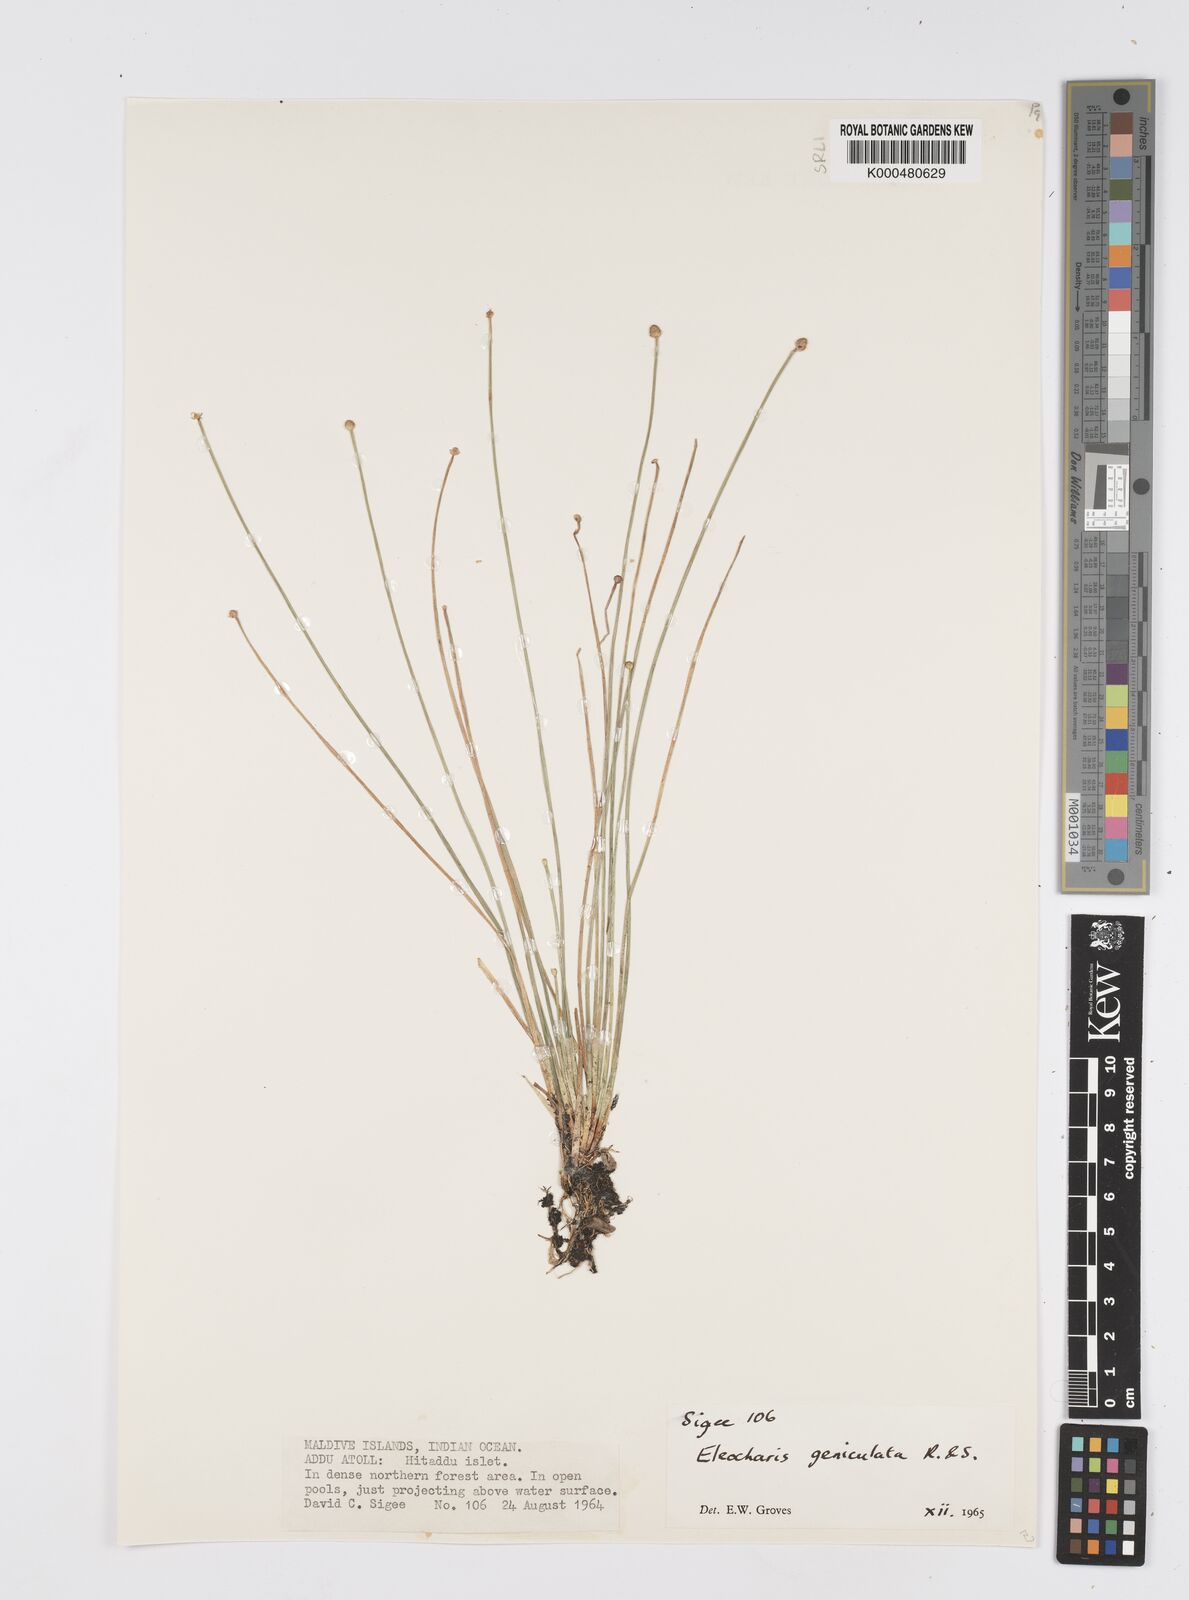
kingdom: Plantae
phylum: Tracheophyta
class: Liliopsida
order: Poales
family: Cyperaceae
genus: Eleocharis
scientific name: Eleocharis geniculata
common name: Canada spikesedge
